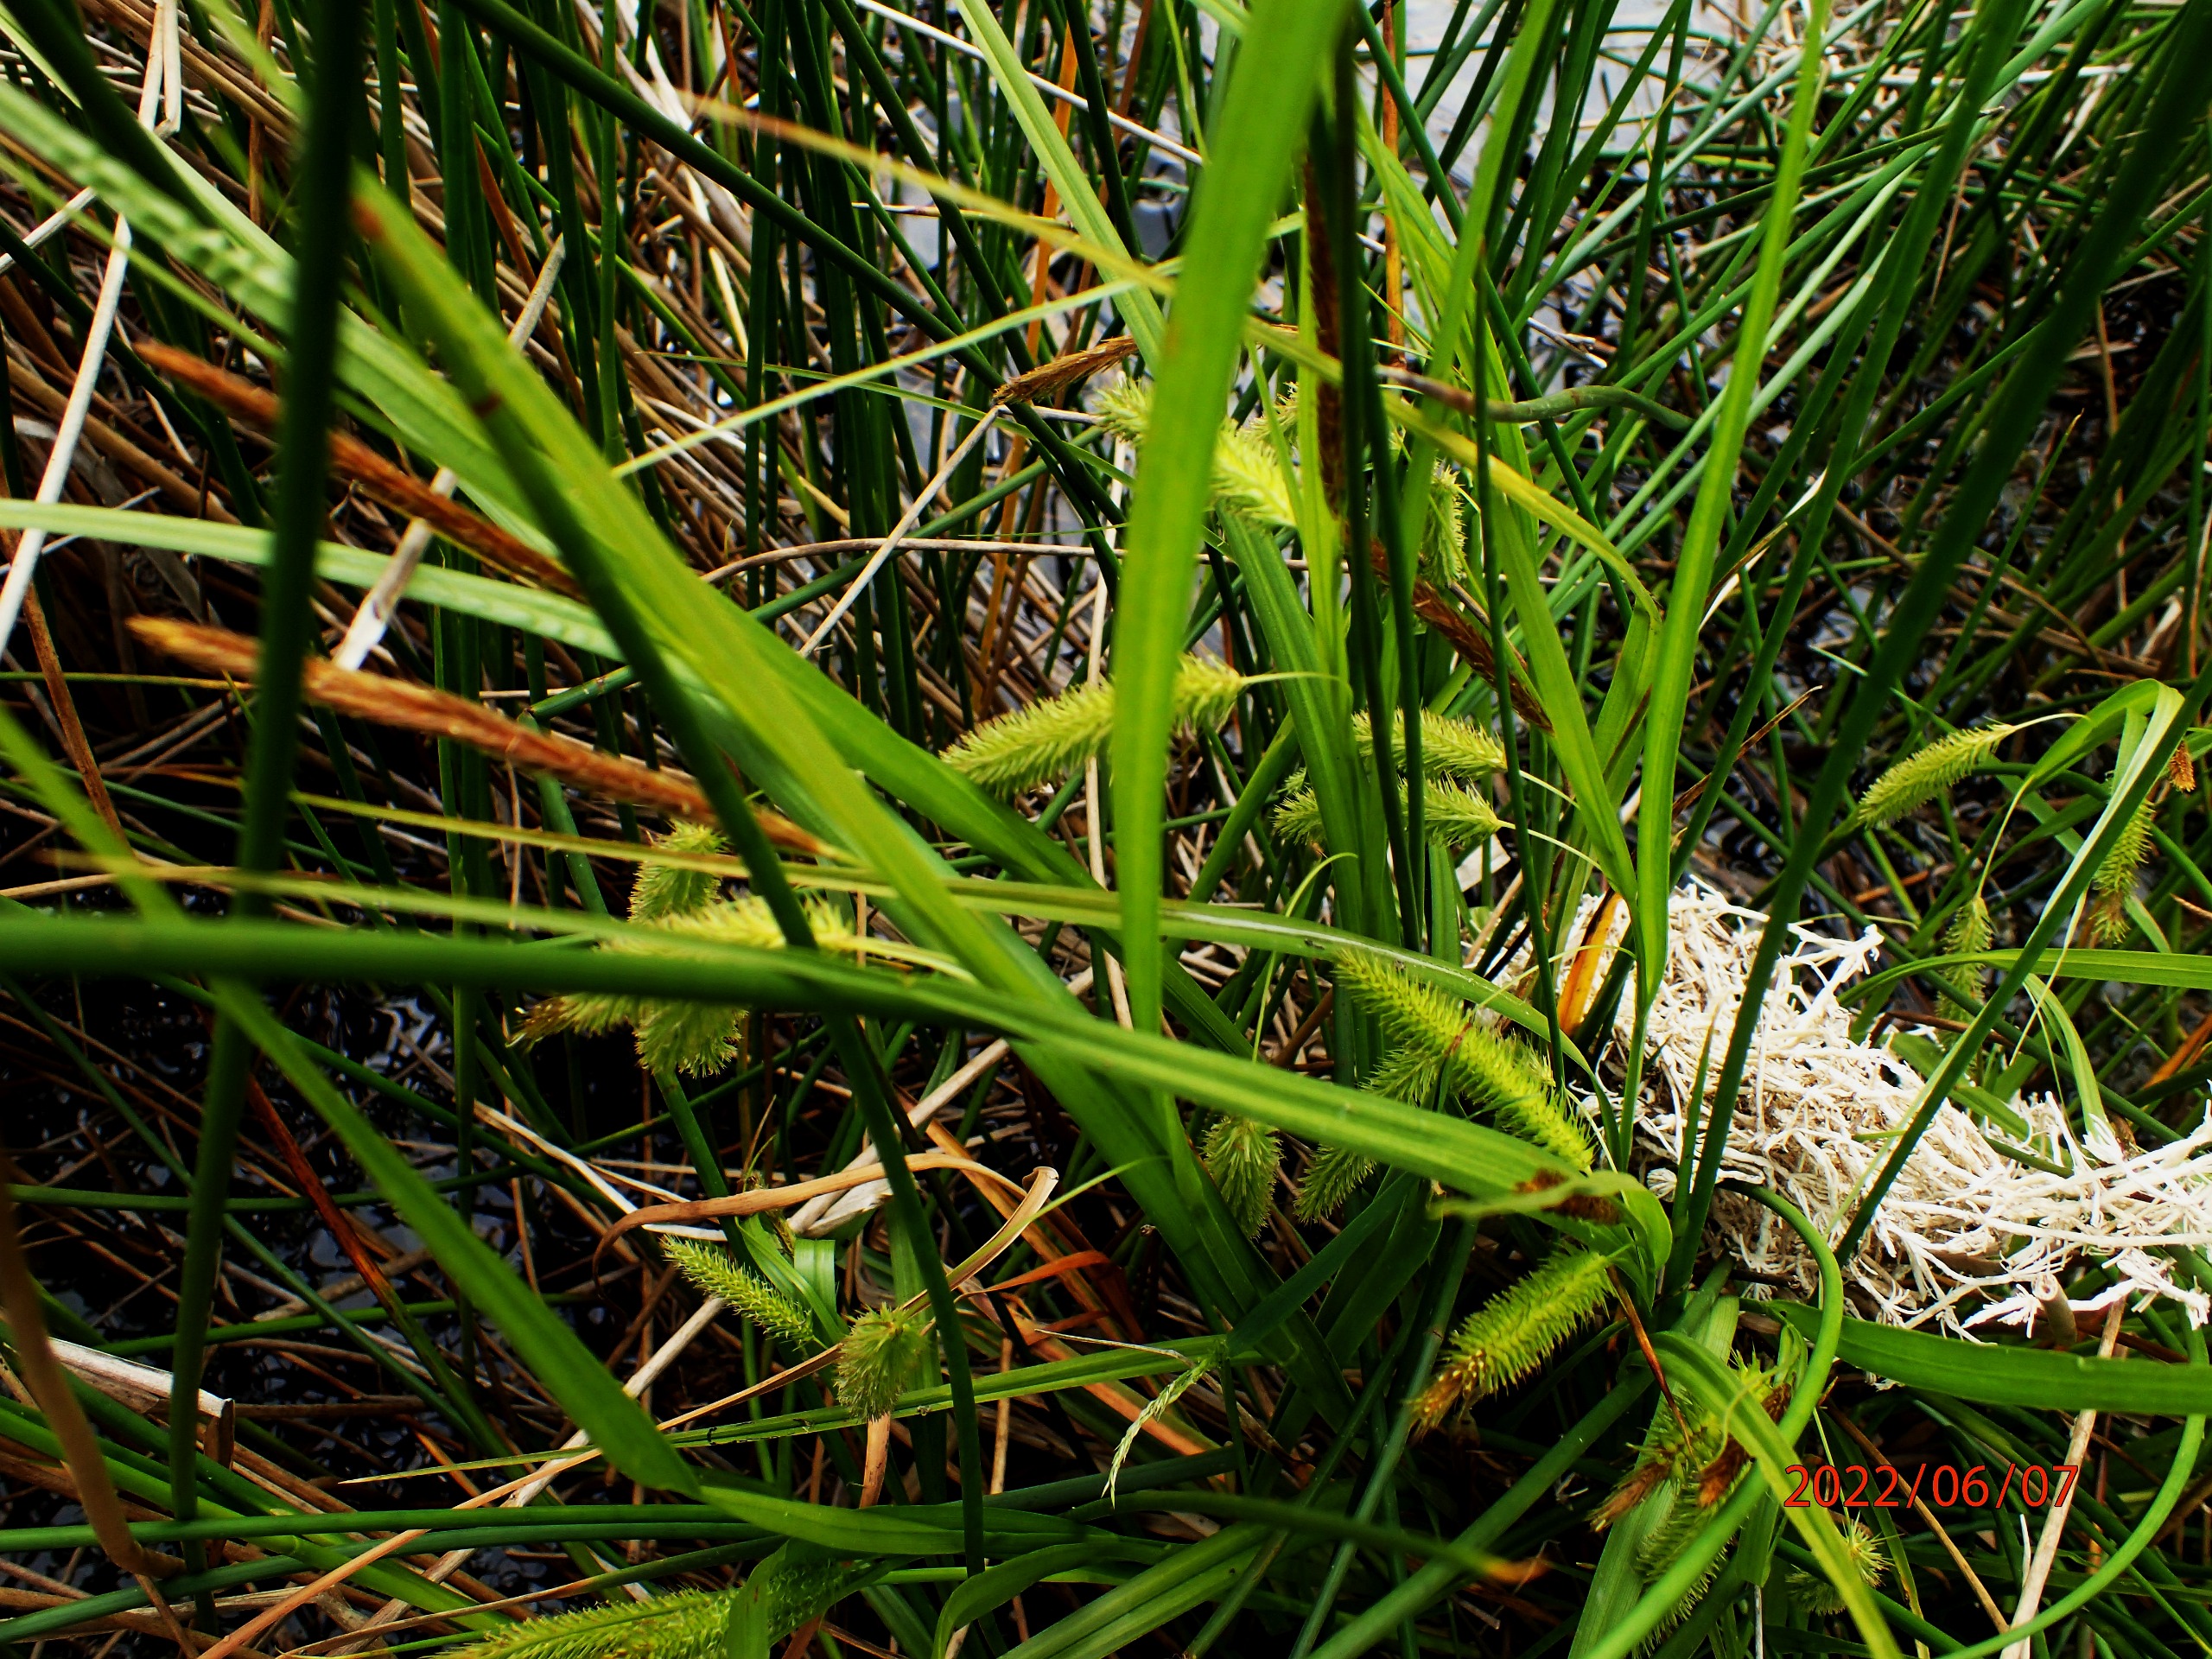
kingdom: Plantae
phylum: Tracheophyta
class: Liliopsida
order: Poales
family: Cyperaceae
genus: Carex
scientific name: Carex pseudocyperus
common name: Knippe-star
